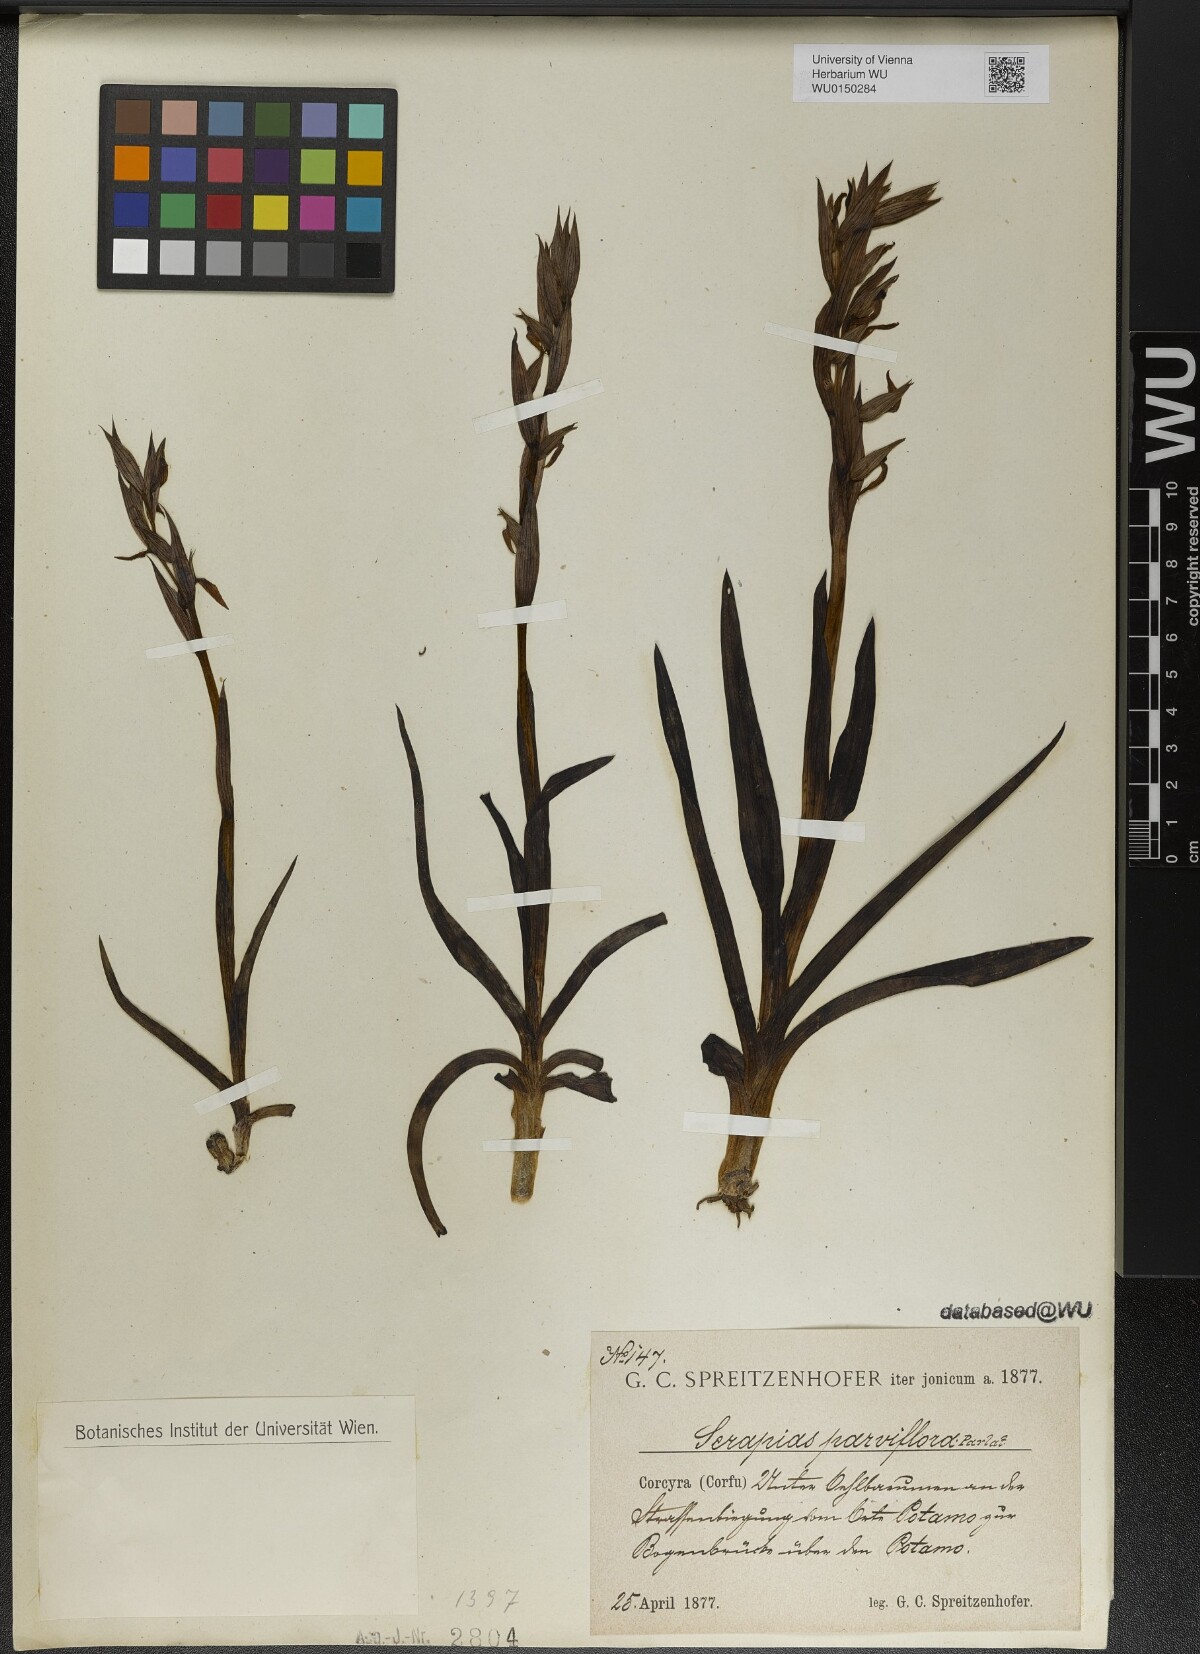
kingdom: Plantae
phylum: Tracheophyta
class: Liliopsida
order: Asparagales
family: Orchidaceae
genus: Serapias
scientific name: Serapias parviflora
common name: Small-flowered tongue-orchid
